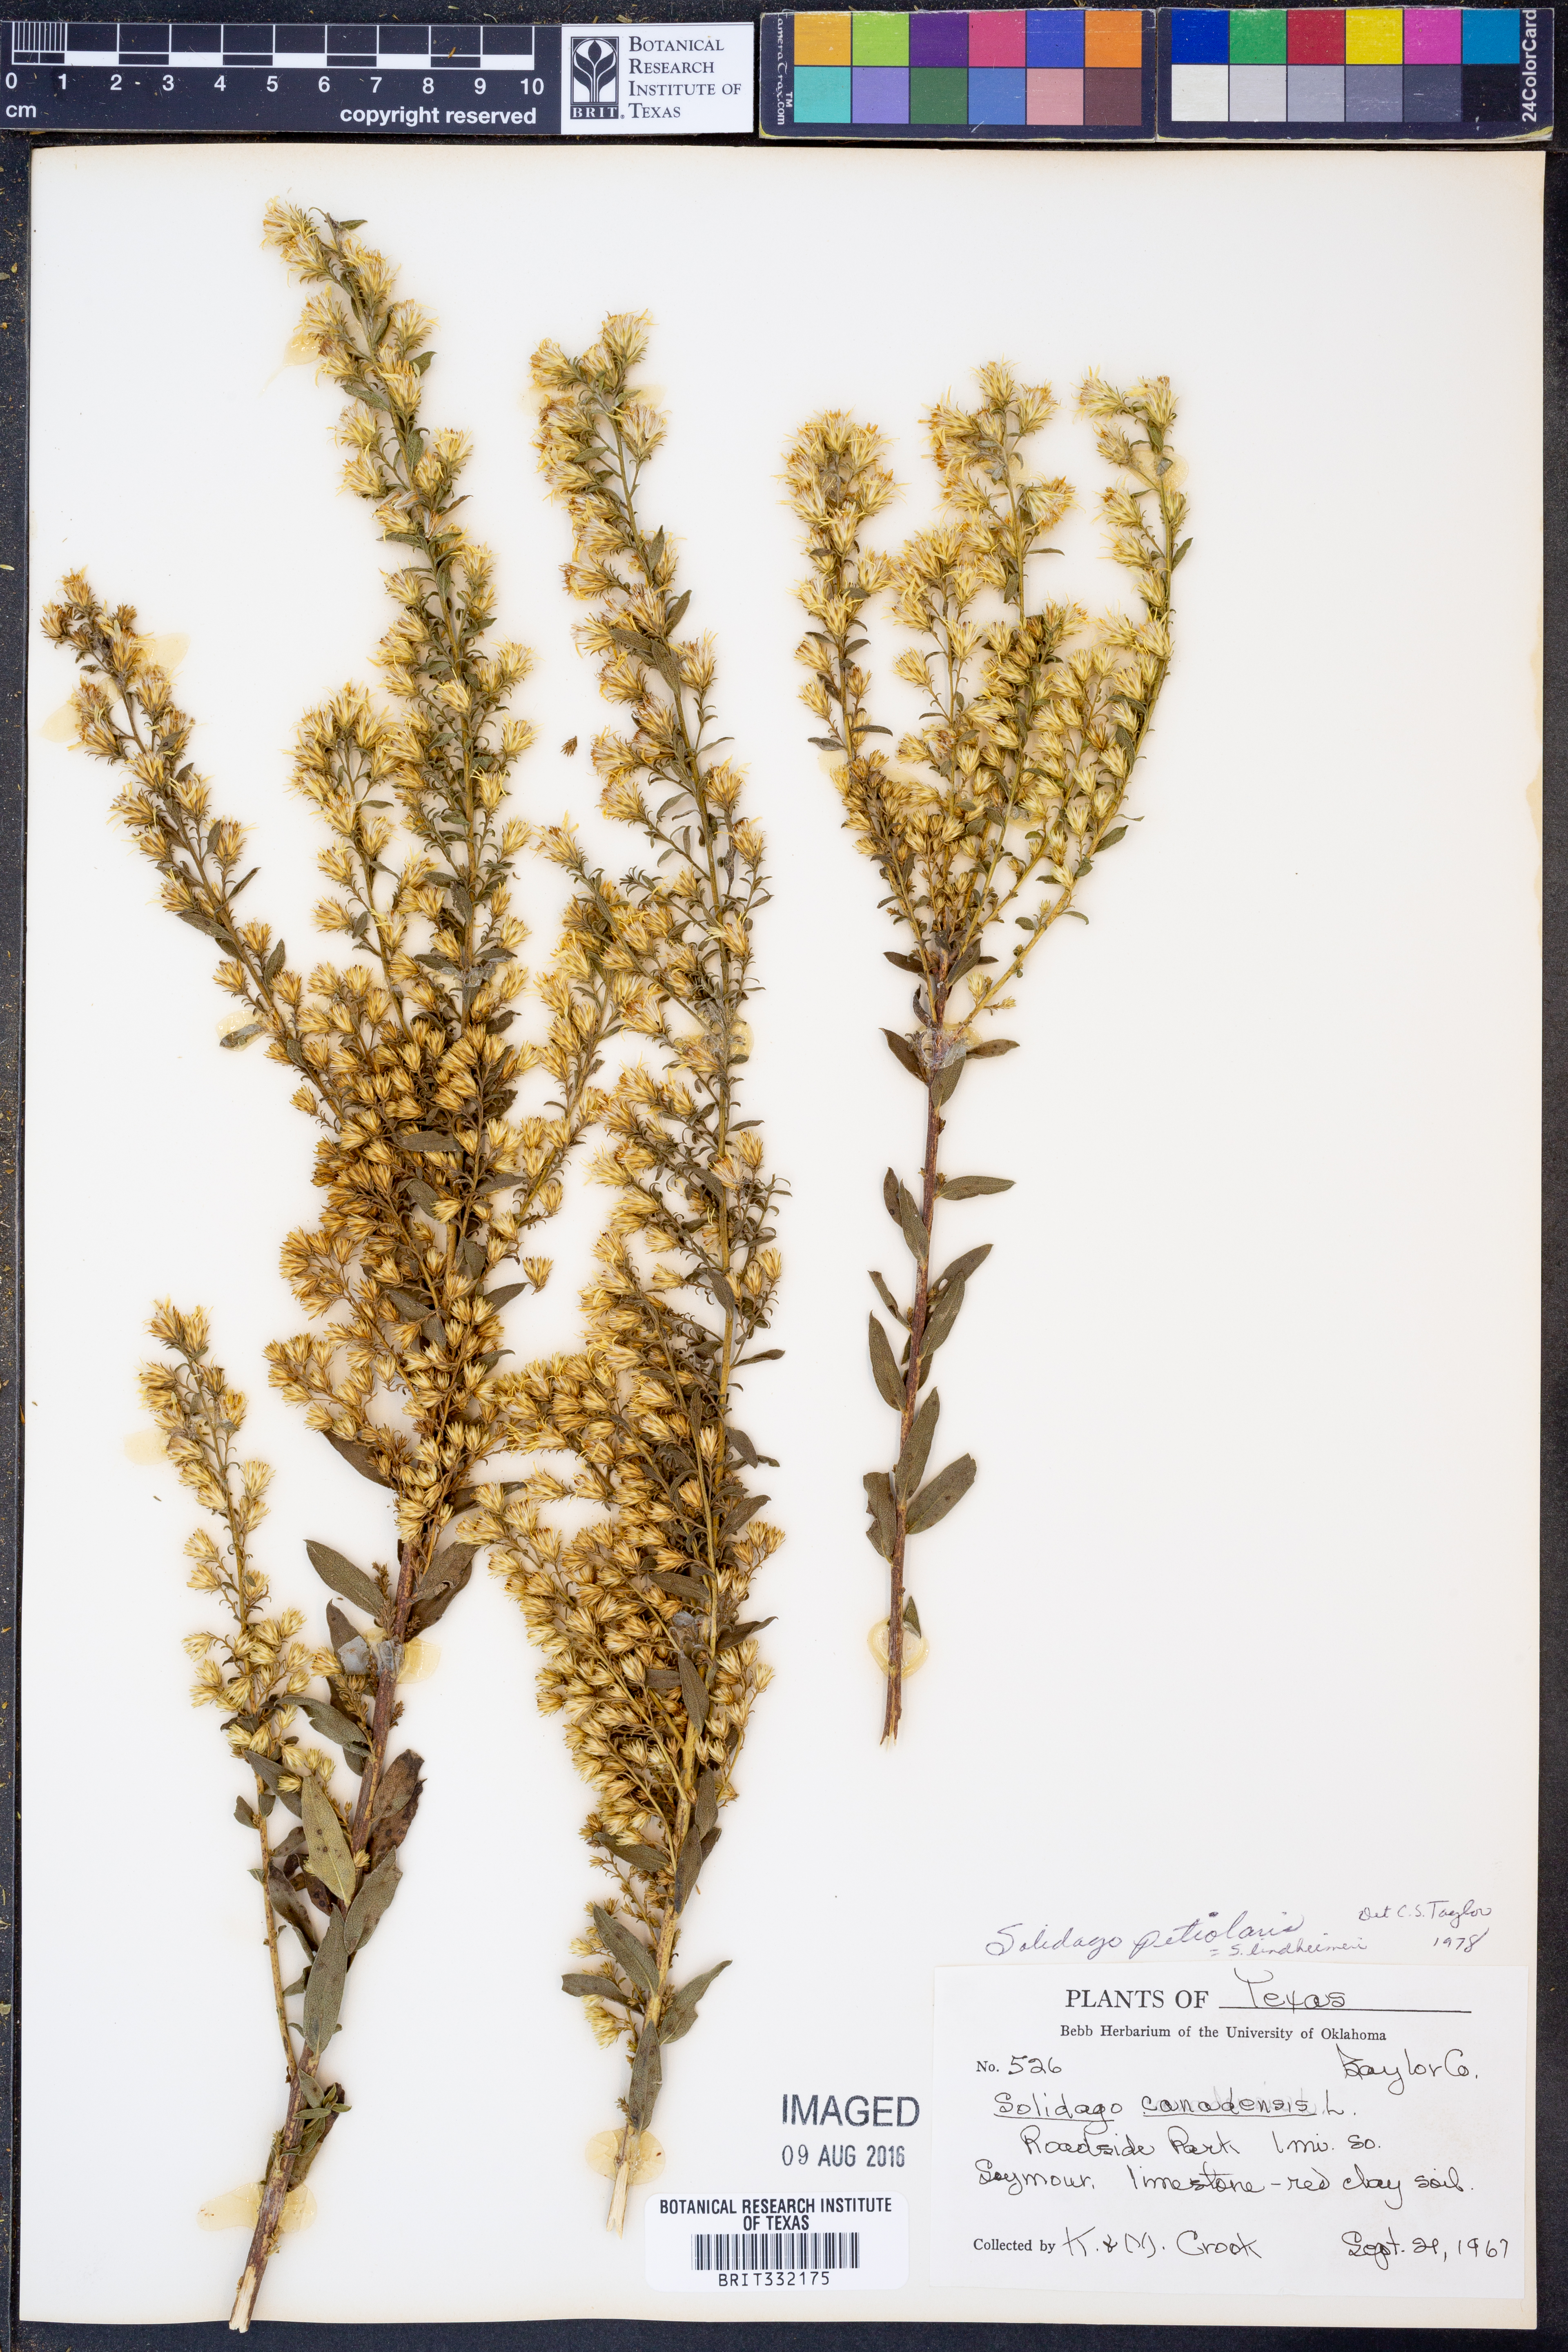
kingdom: Plantae
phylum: Tracheophyta
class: Magnoliopsida
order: Asterales
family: Asteraceae
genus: Solidago
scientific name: Solidago petiolaris
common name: Downy ragged goldenrod
